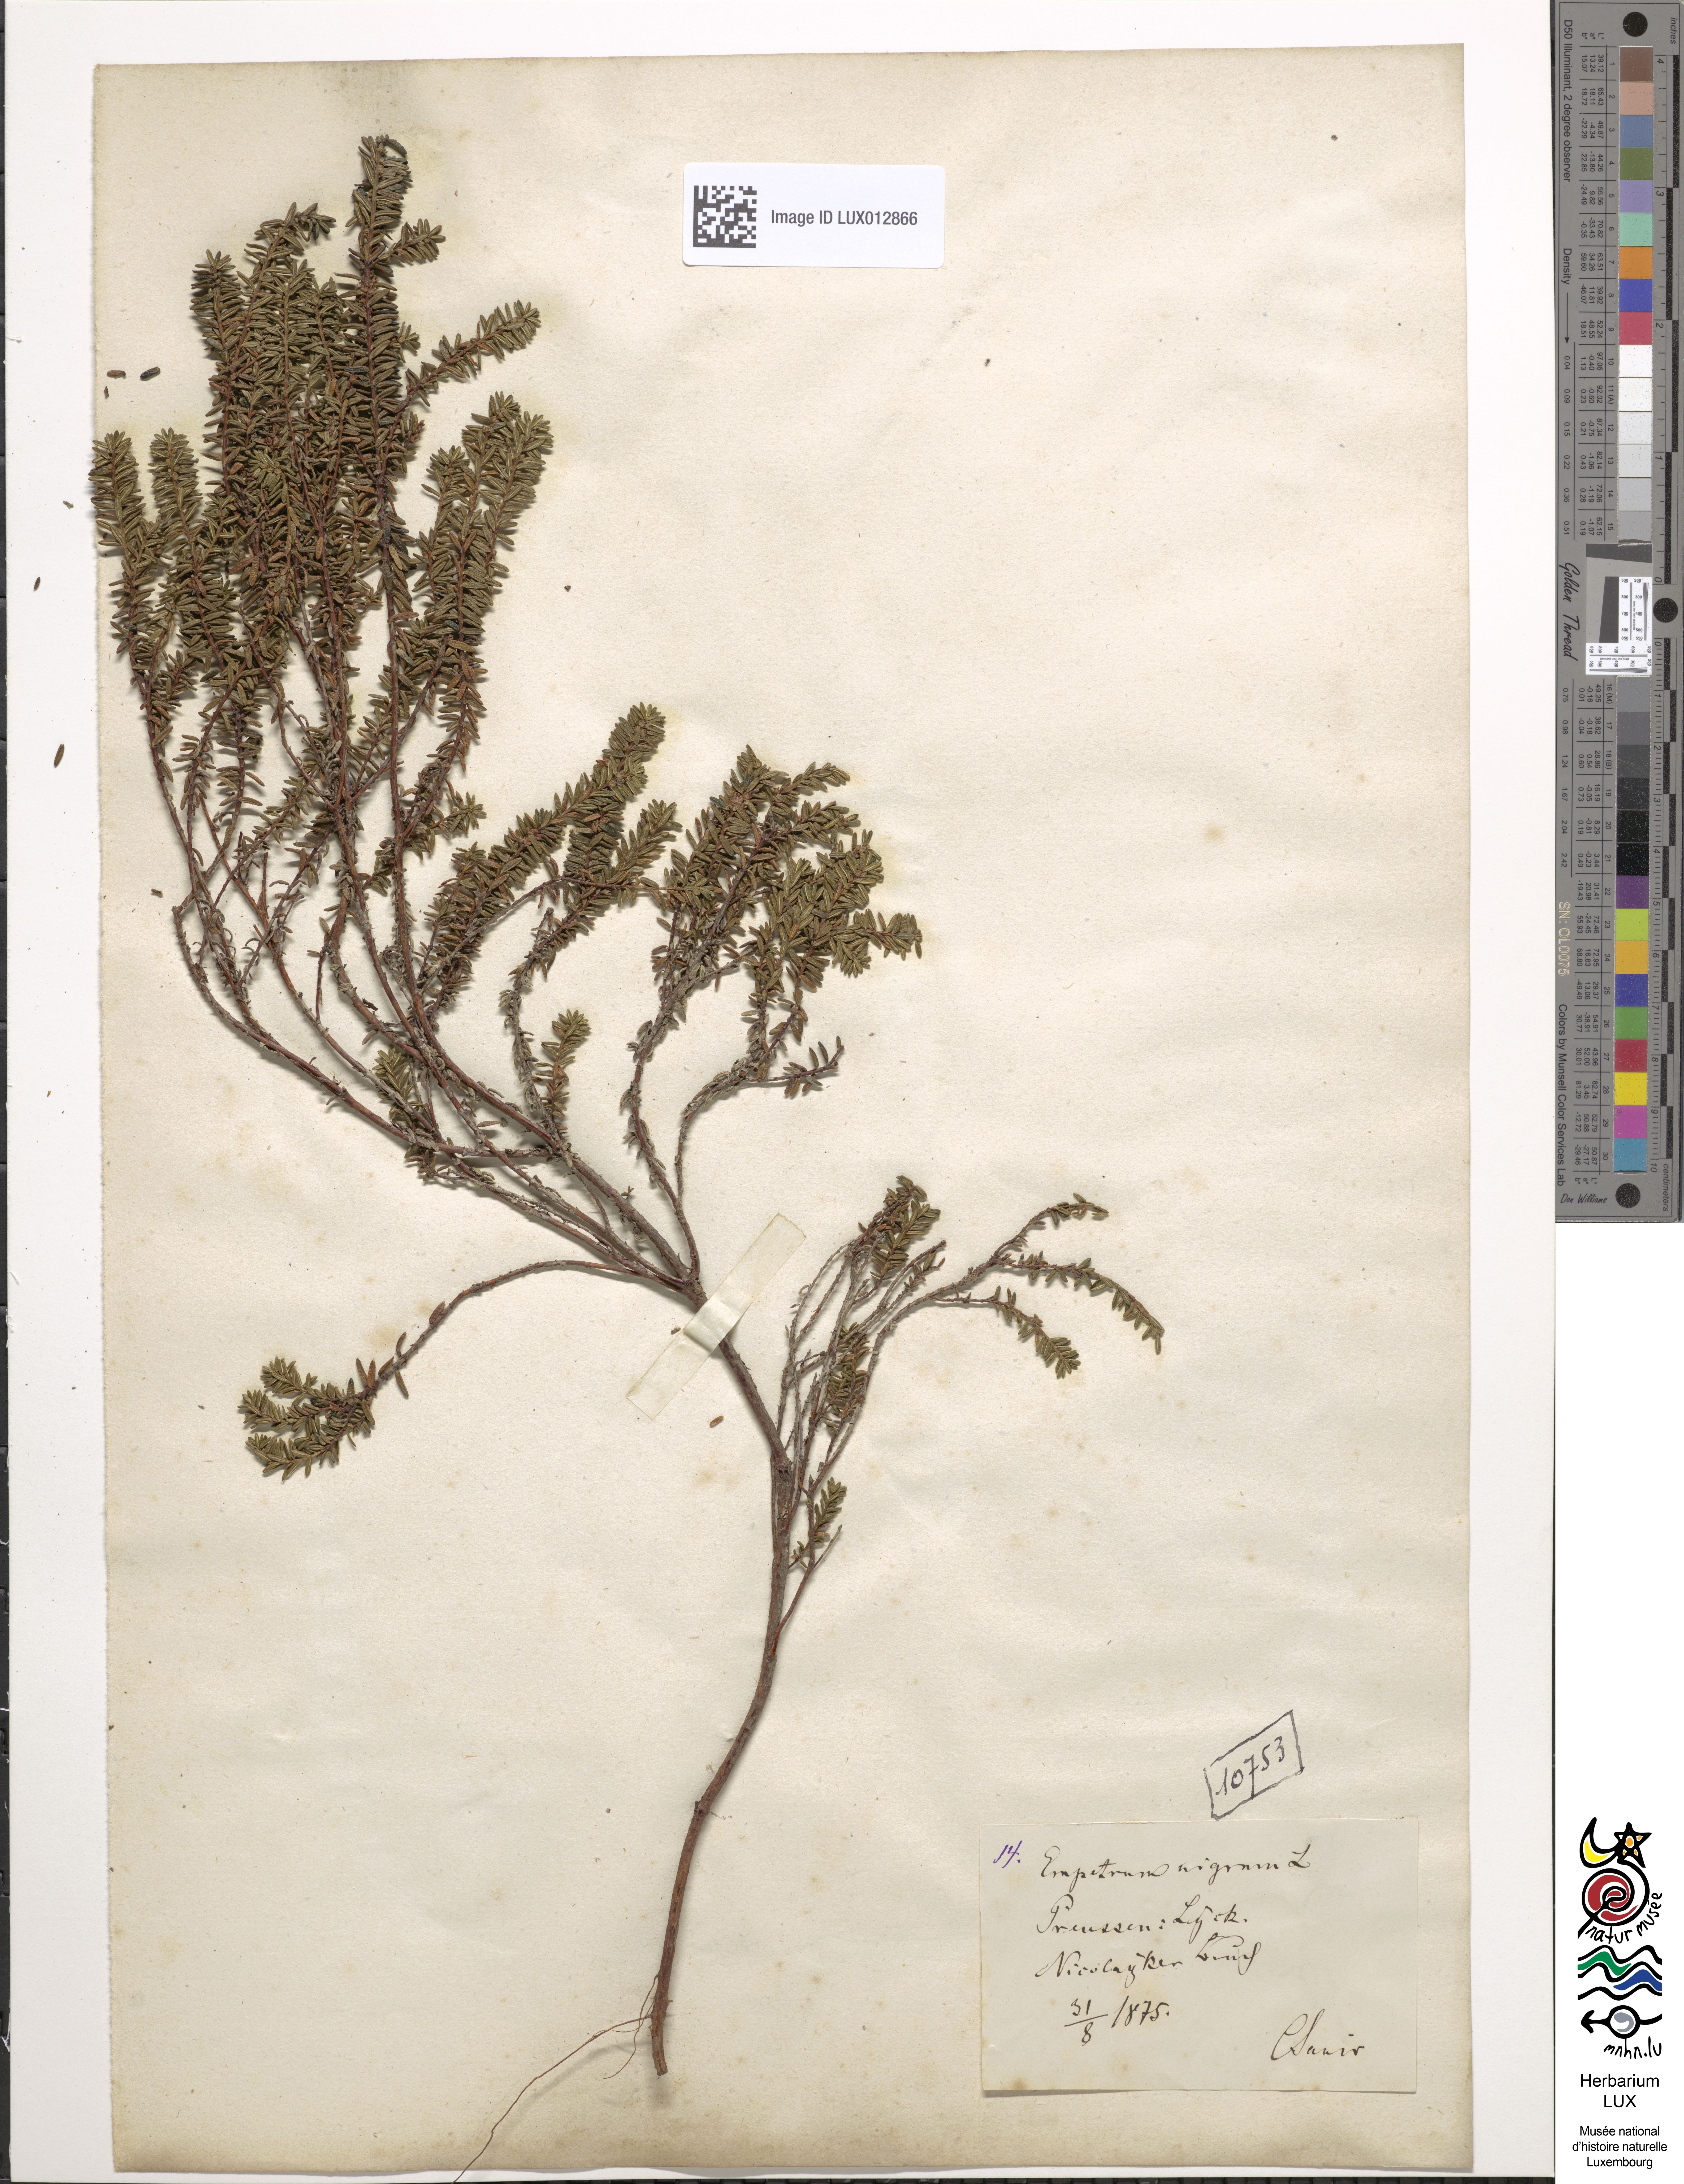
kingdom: Plantae
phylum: Tracheophyta
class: Magnoliopsida
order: Ericales
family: Ericaceae
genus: Empetrum
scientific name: Empetrum nigrum
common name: Black crowberry
